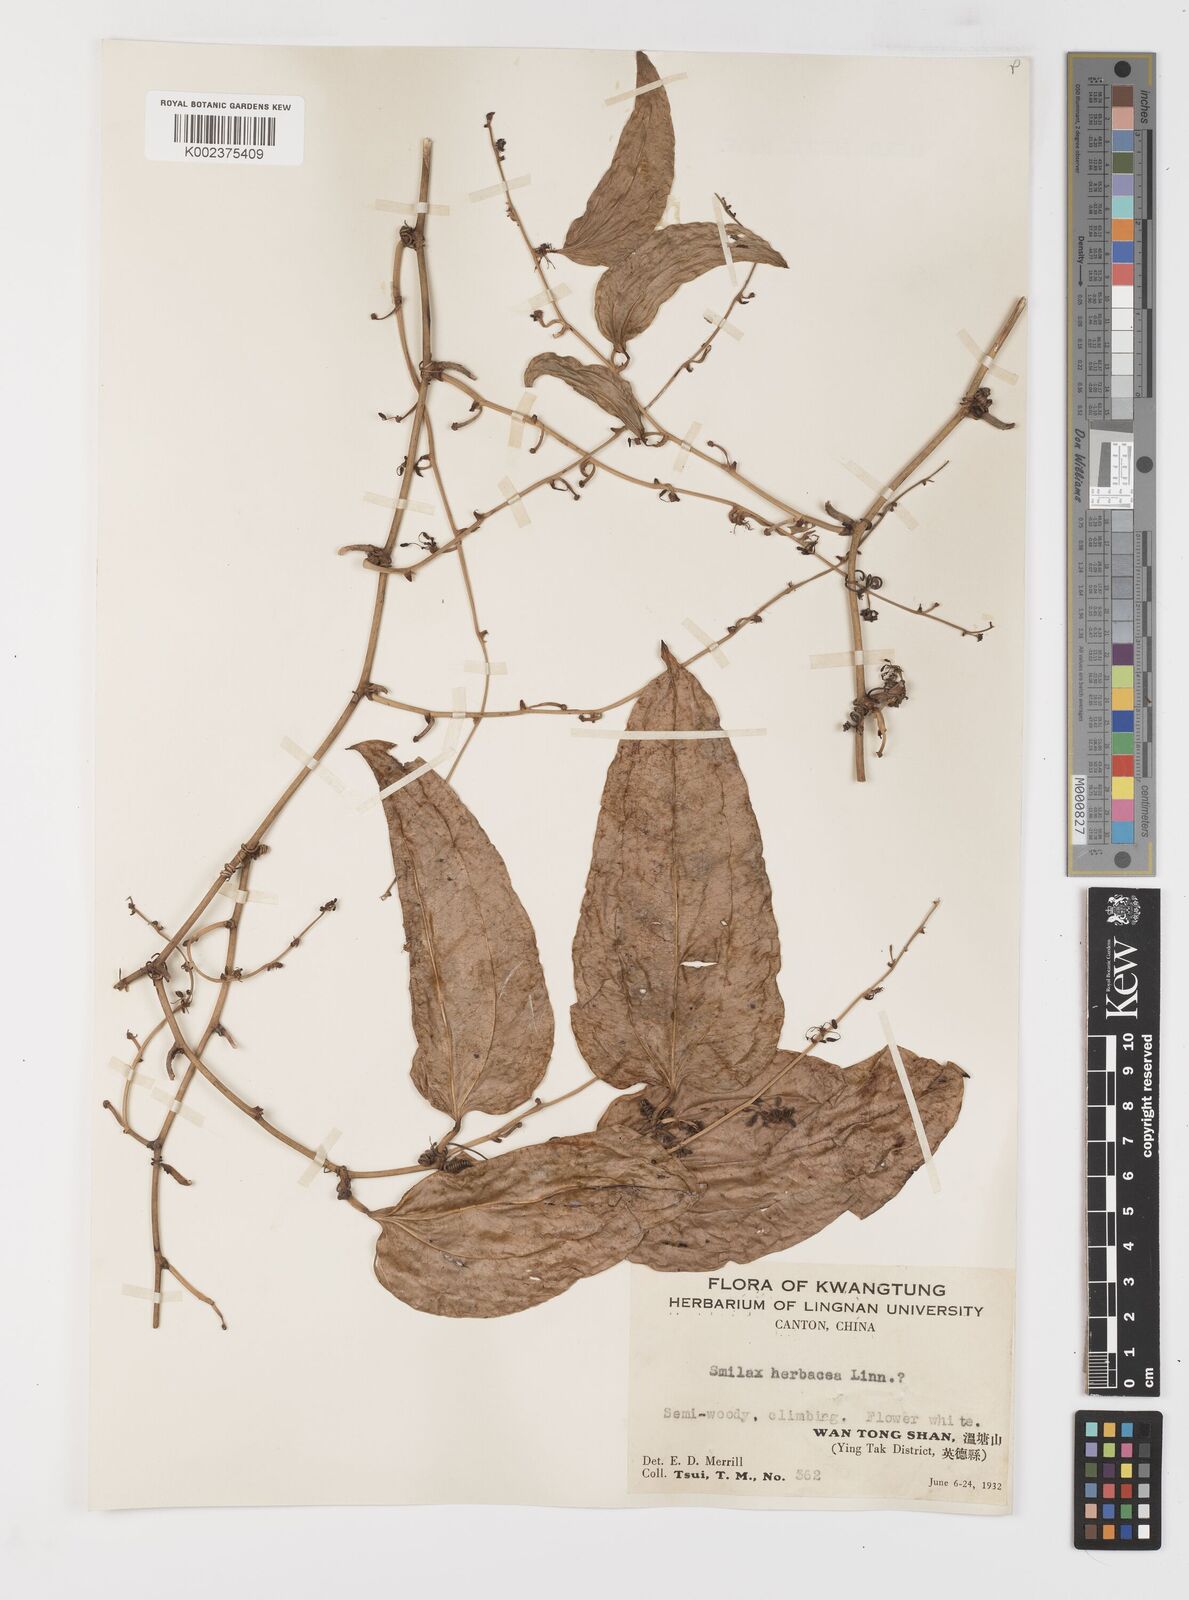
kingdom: Plantae
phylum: Tracheophyta
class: Liliopsida
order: Liliales
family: Smilacaceae
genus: Smilax
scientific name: Smilax riparia
